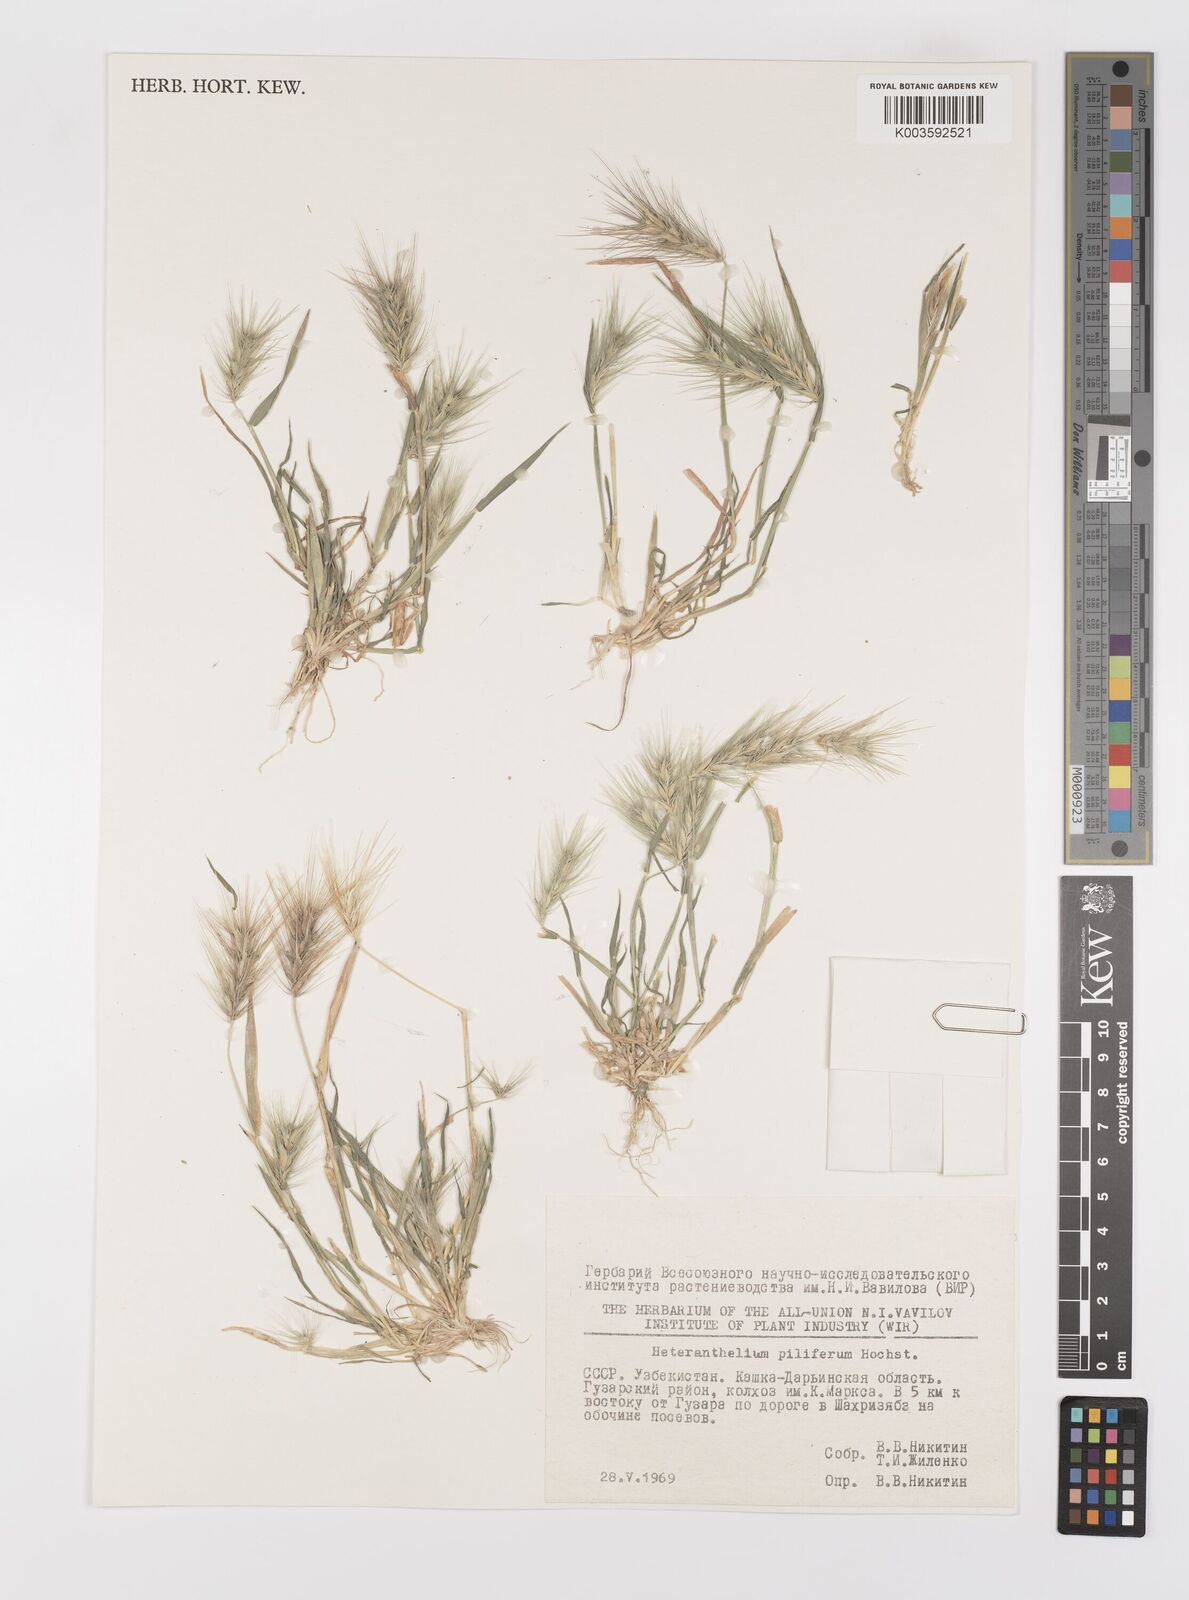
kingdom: Plantae
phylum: Tracheophyta
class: Liliopsida
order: Poales
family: Poaceae
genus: Heteranthelium
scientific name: Heteranthelium piliferum
